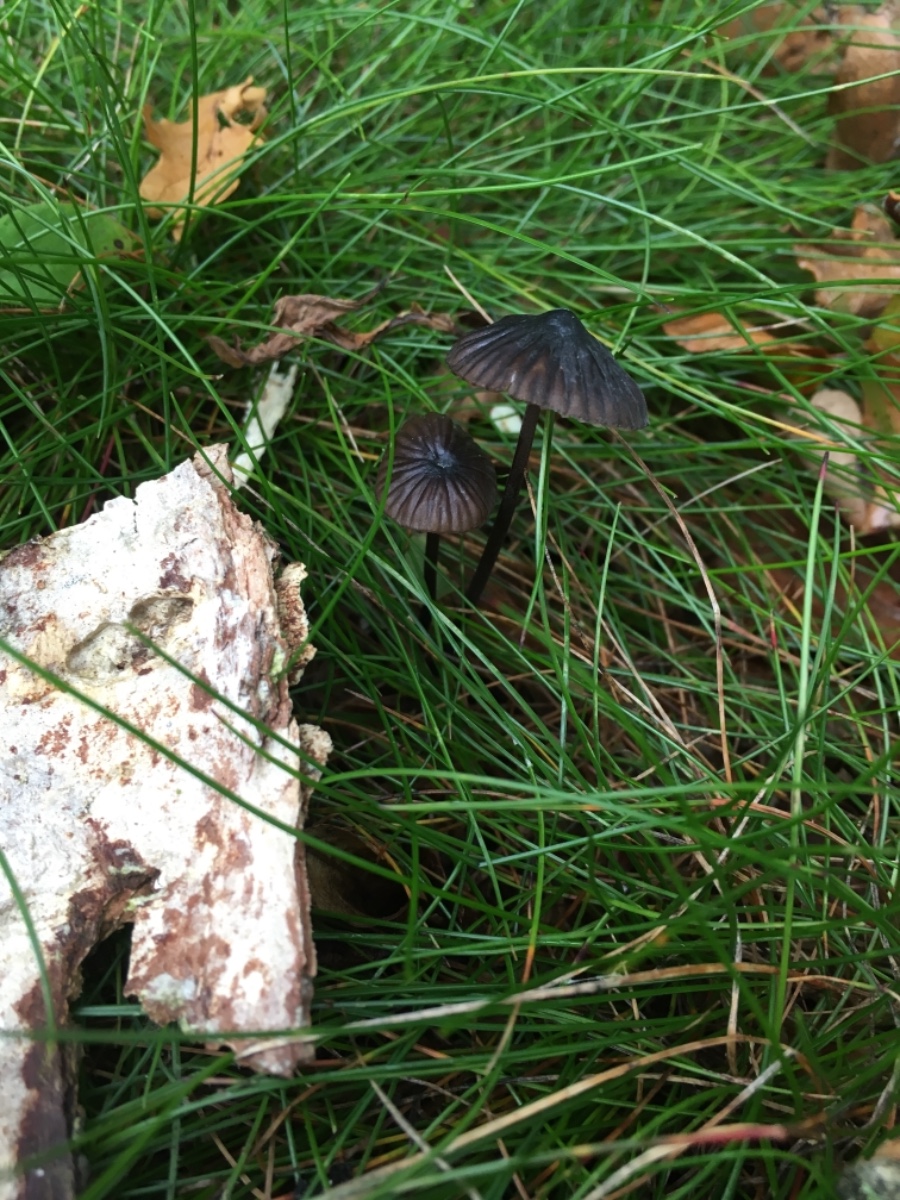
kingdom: Fungi
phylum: Basidiomycota
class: Agaricomycetes
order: Agaricales
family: Mycenaceae
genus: Mycena
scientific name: Mycena galopus
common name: hvidmælket huesvamp
